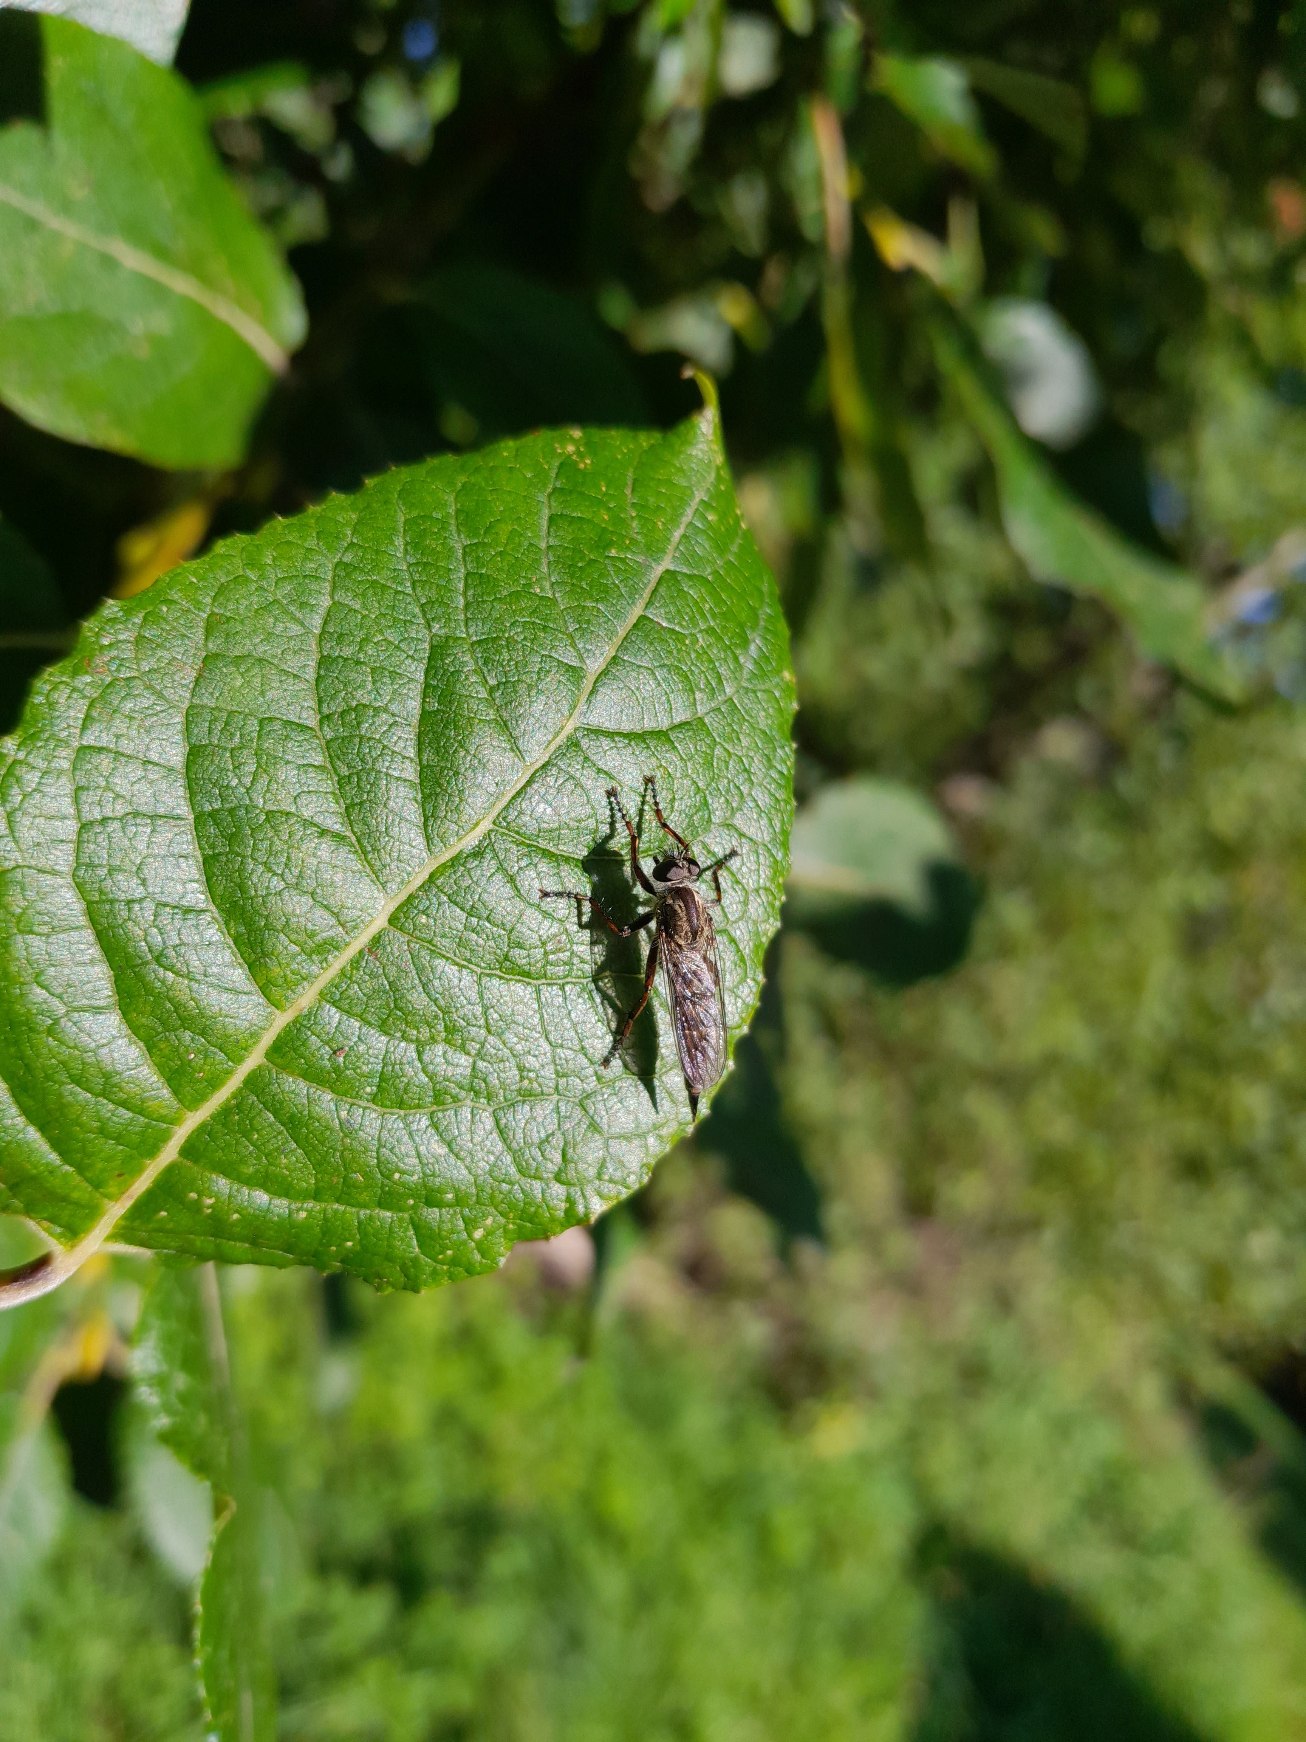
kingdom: Animalia
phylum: Arthropoda
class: Insecta
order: Diptera
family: Asilidae
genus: Machimus
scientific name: Machimus atricapillus
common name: Sort hårrovflue
